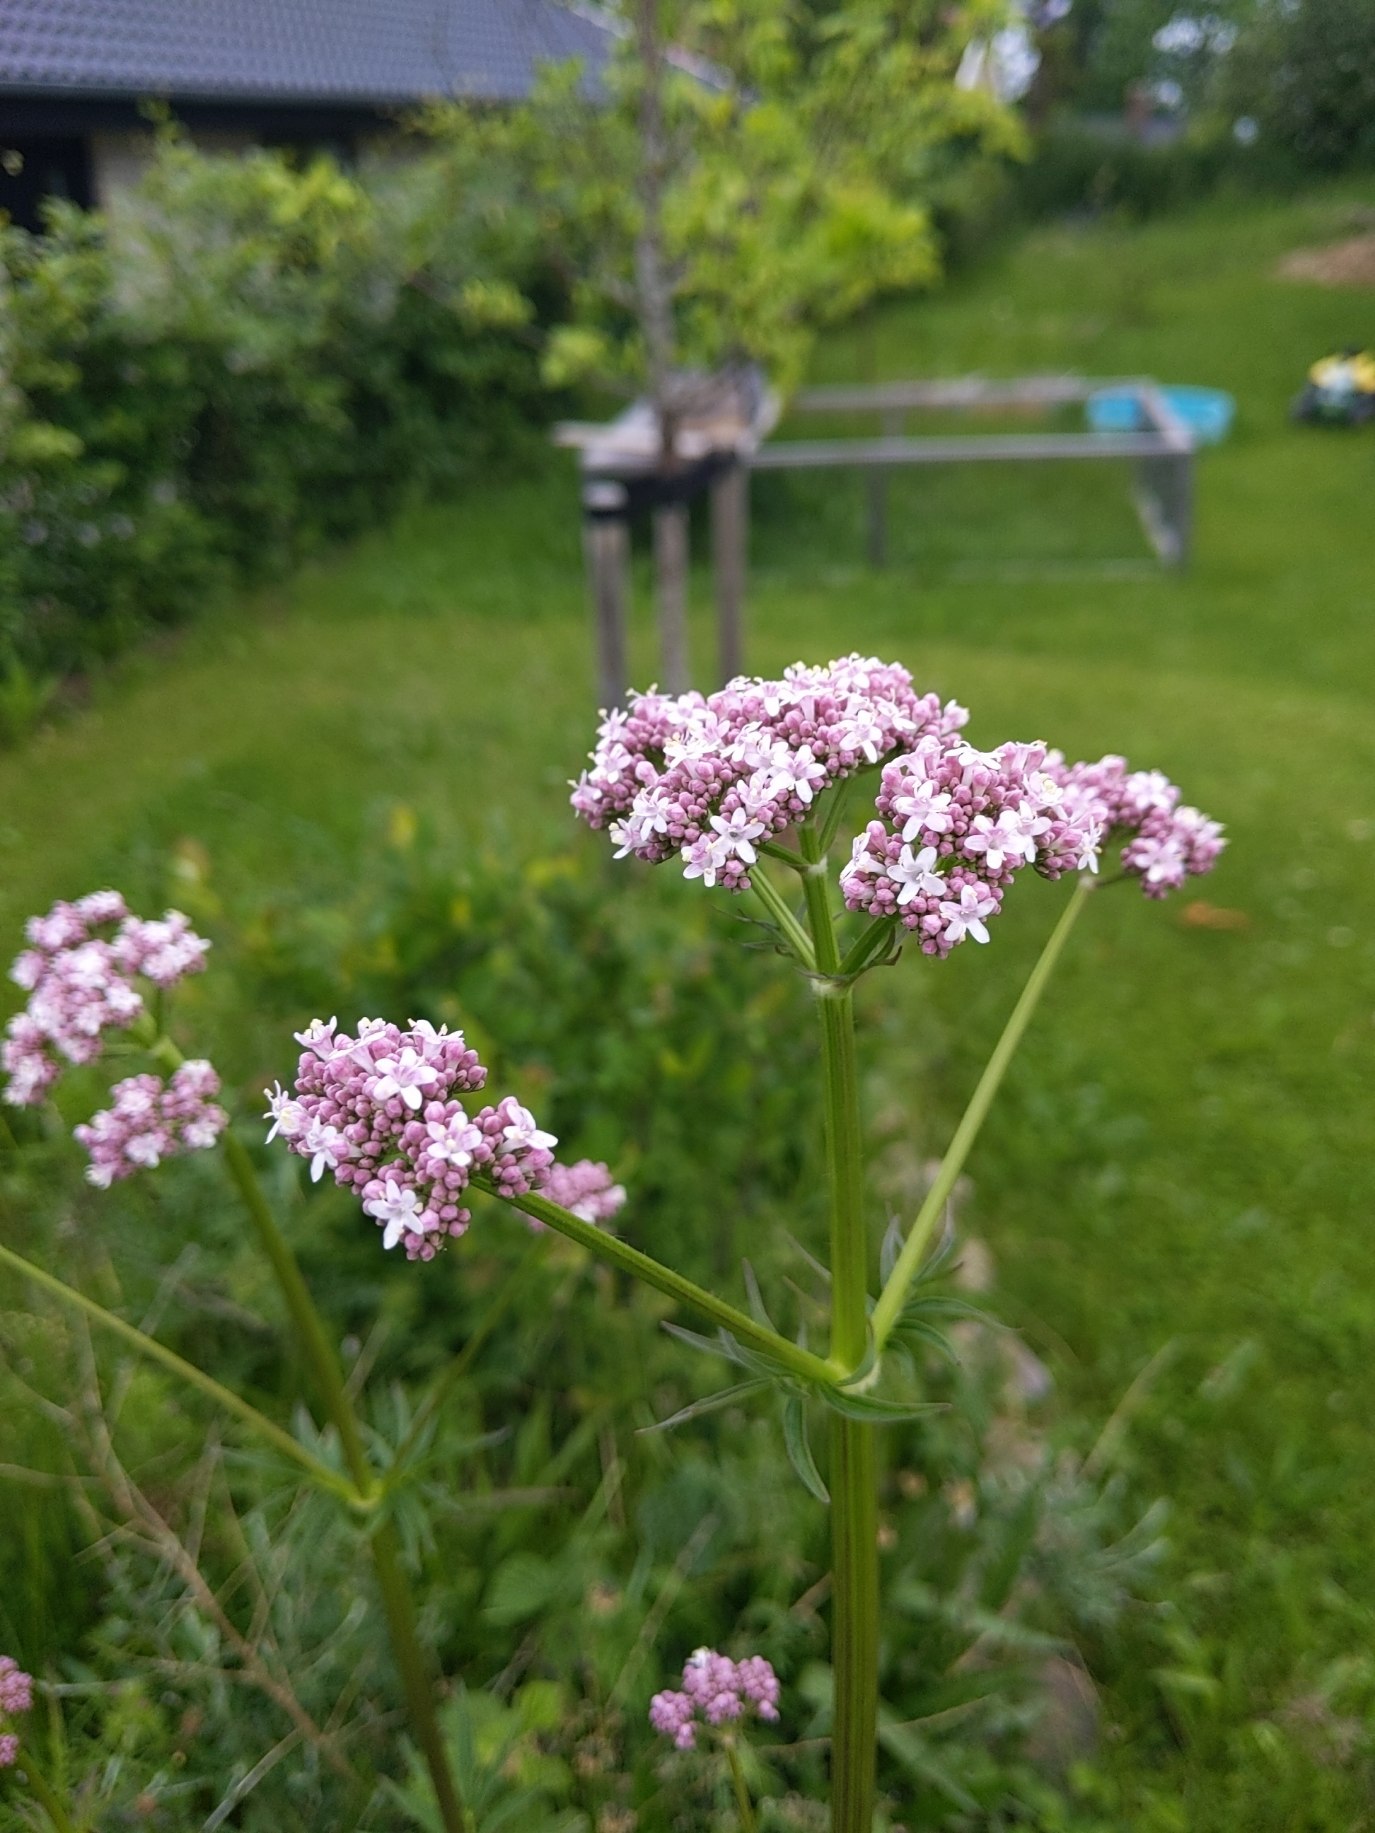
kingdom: Plantae
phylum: Tracheophyta
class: Magnoliopsida
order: Dipsacales
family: Caprifoliaceae
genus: Valeriana
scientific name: Valeriana sambucifolia
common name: Hyldebladet baldrian
